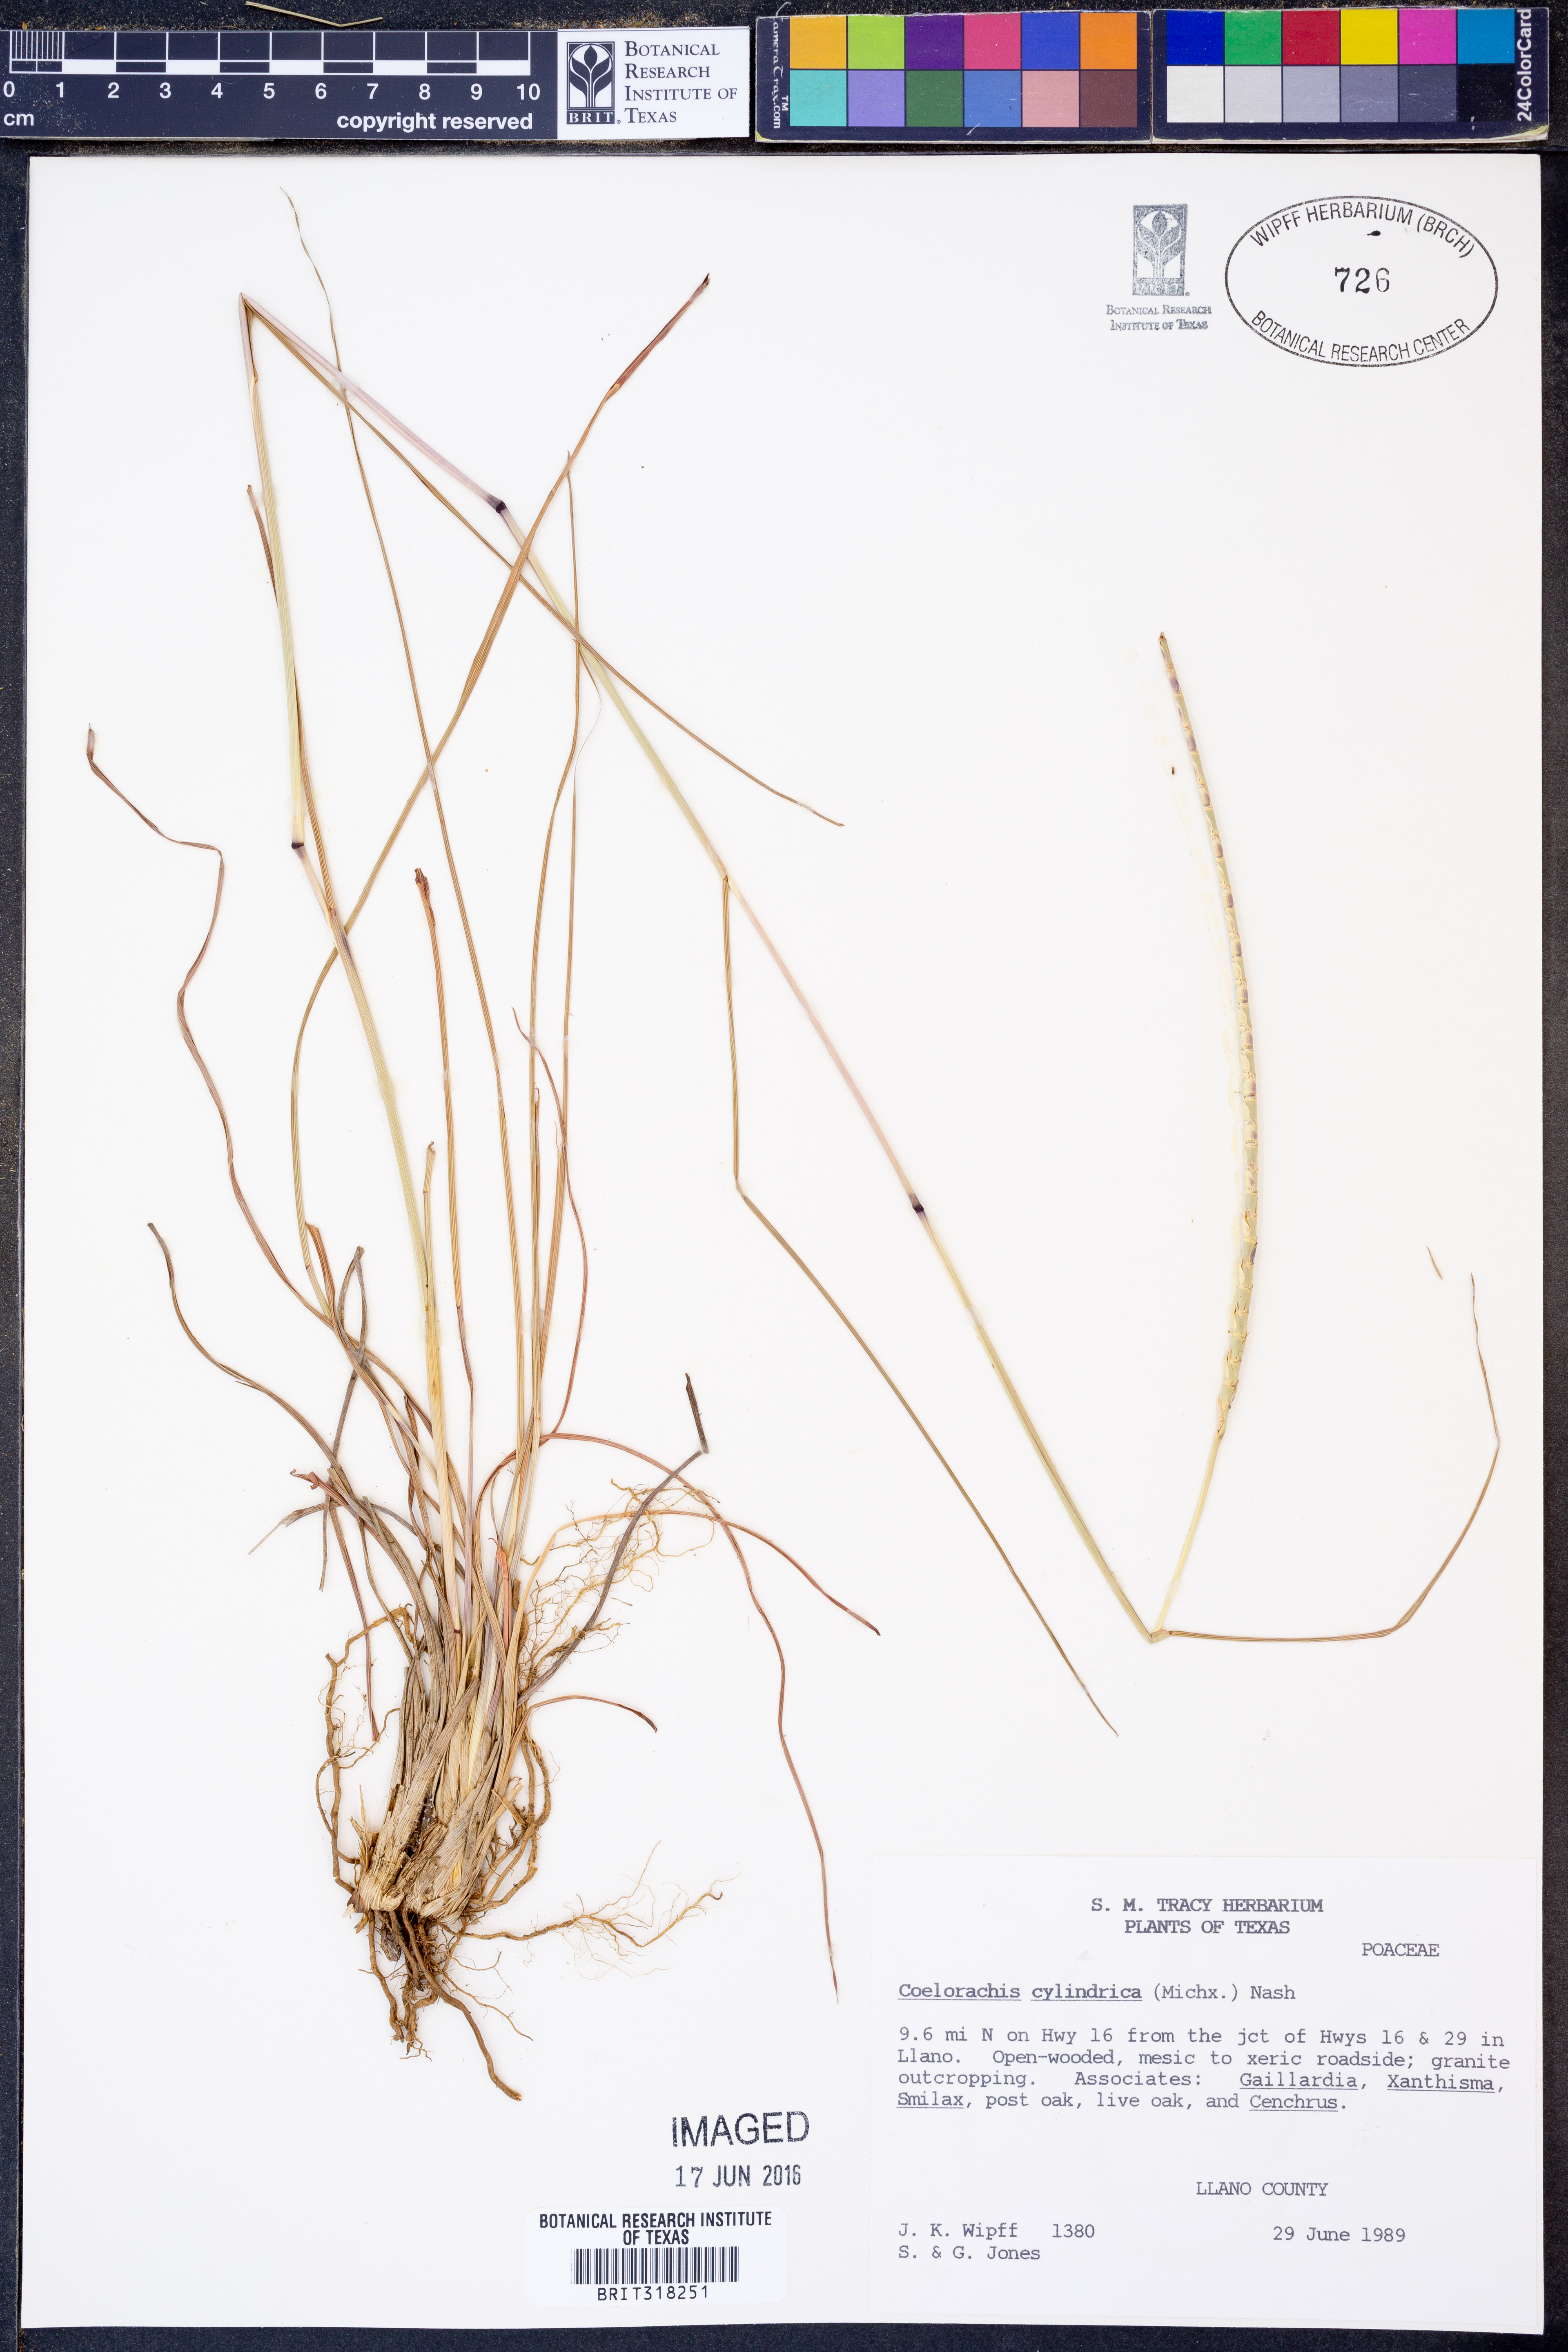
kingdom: Plantae
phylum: Tracheophyta
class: Liliopsida
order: Poales
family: Poaceae
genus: Rottboellia
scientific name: Rottboellia campestris
